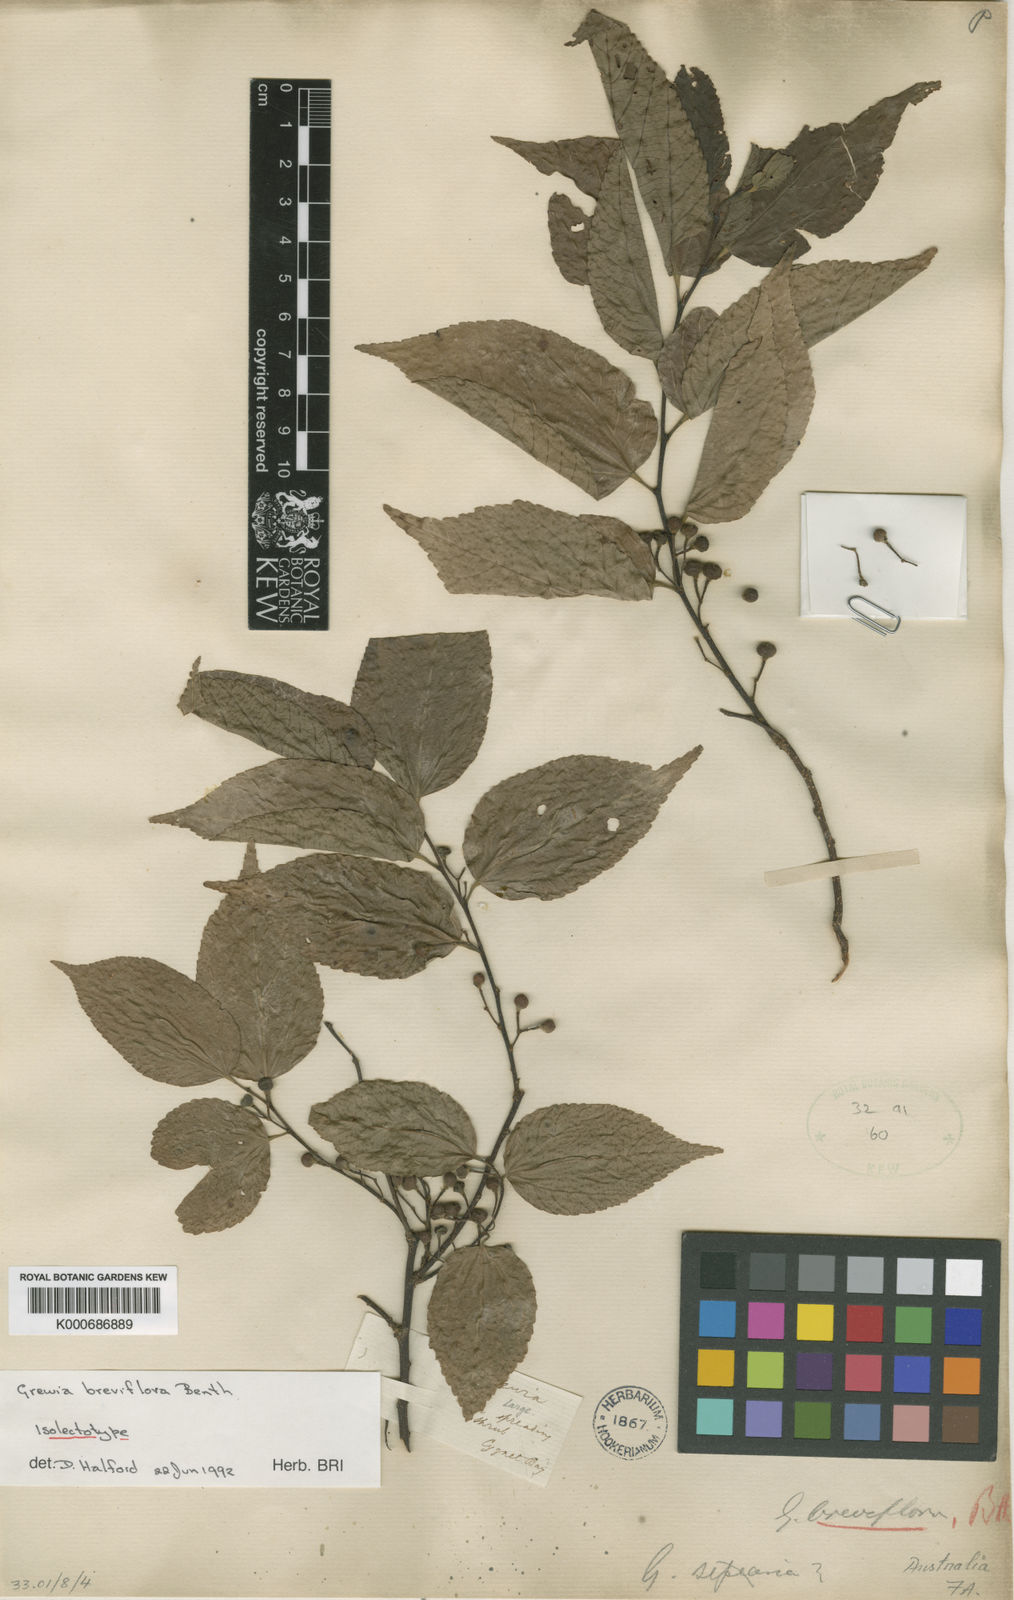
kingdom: Plantae
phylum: Tracheophyta
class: Magnoliopsida
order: Malvales
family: Malvaceae
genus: Grewia
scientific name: Grewia breviflora
